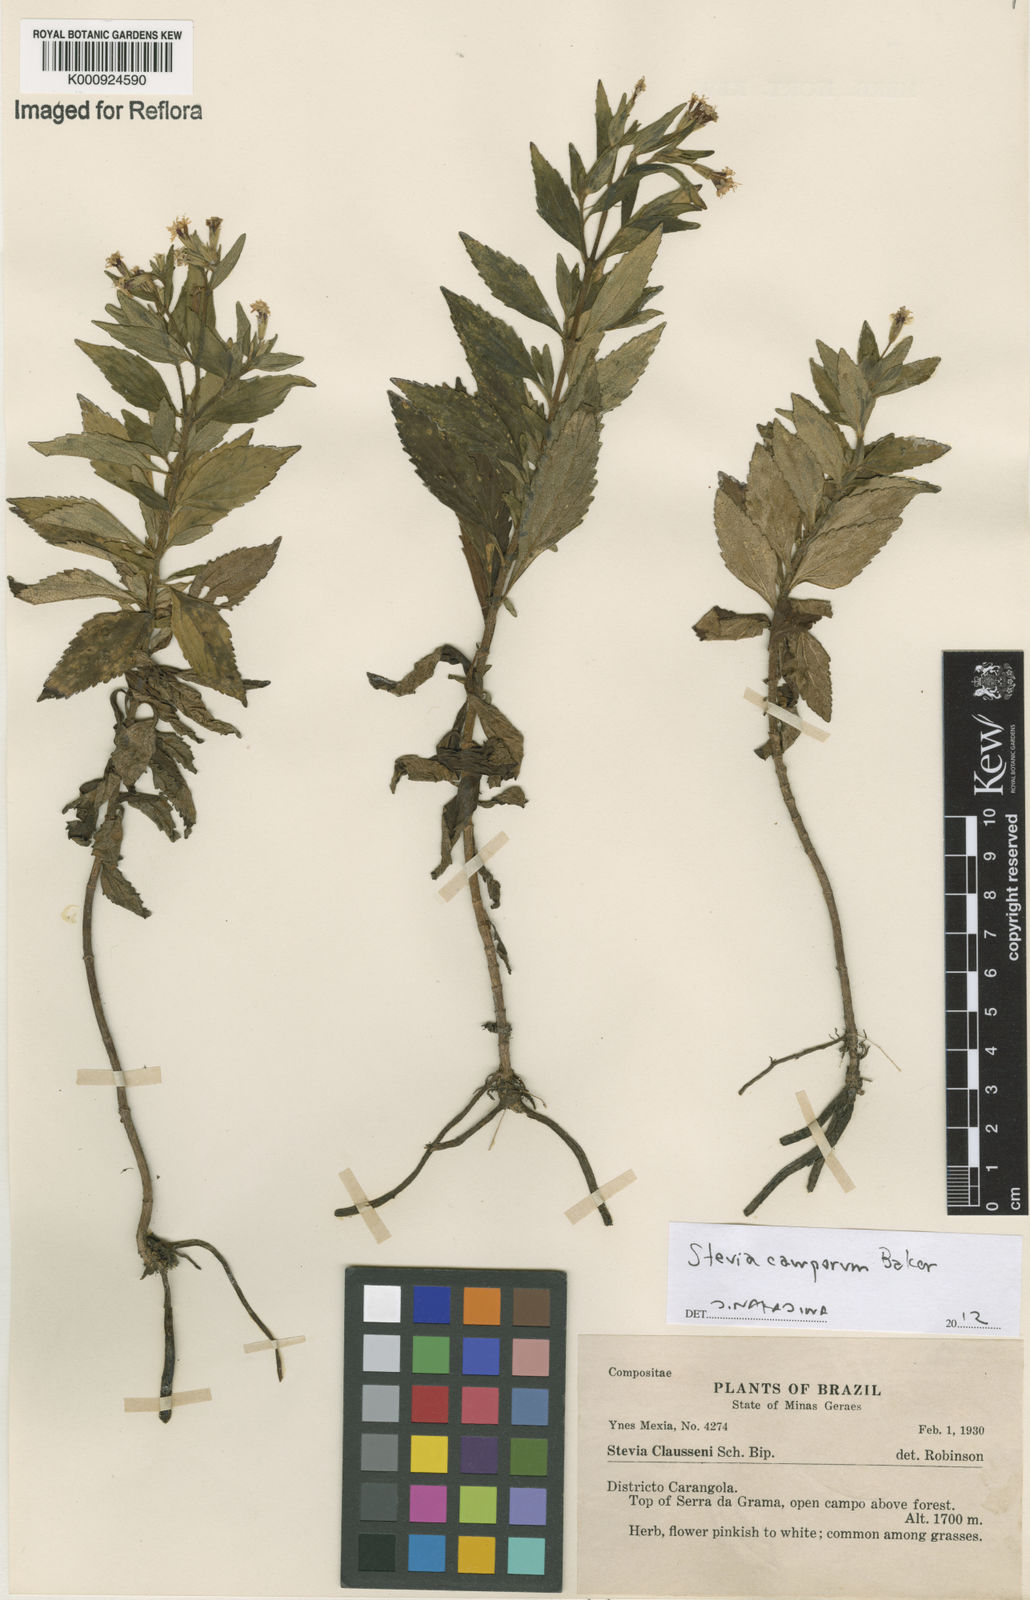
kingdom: Plantae
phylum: Tracheophyta
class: Magnoliopsida
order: Asterales
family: Asteraceae
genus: Stevia
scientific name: Stevia camporum
